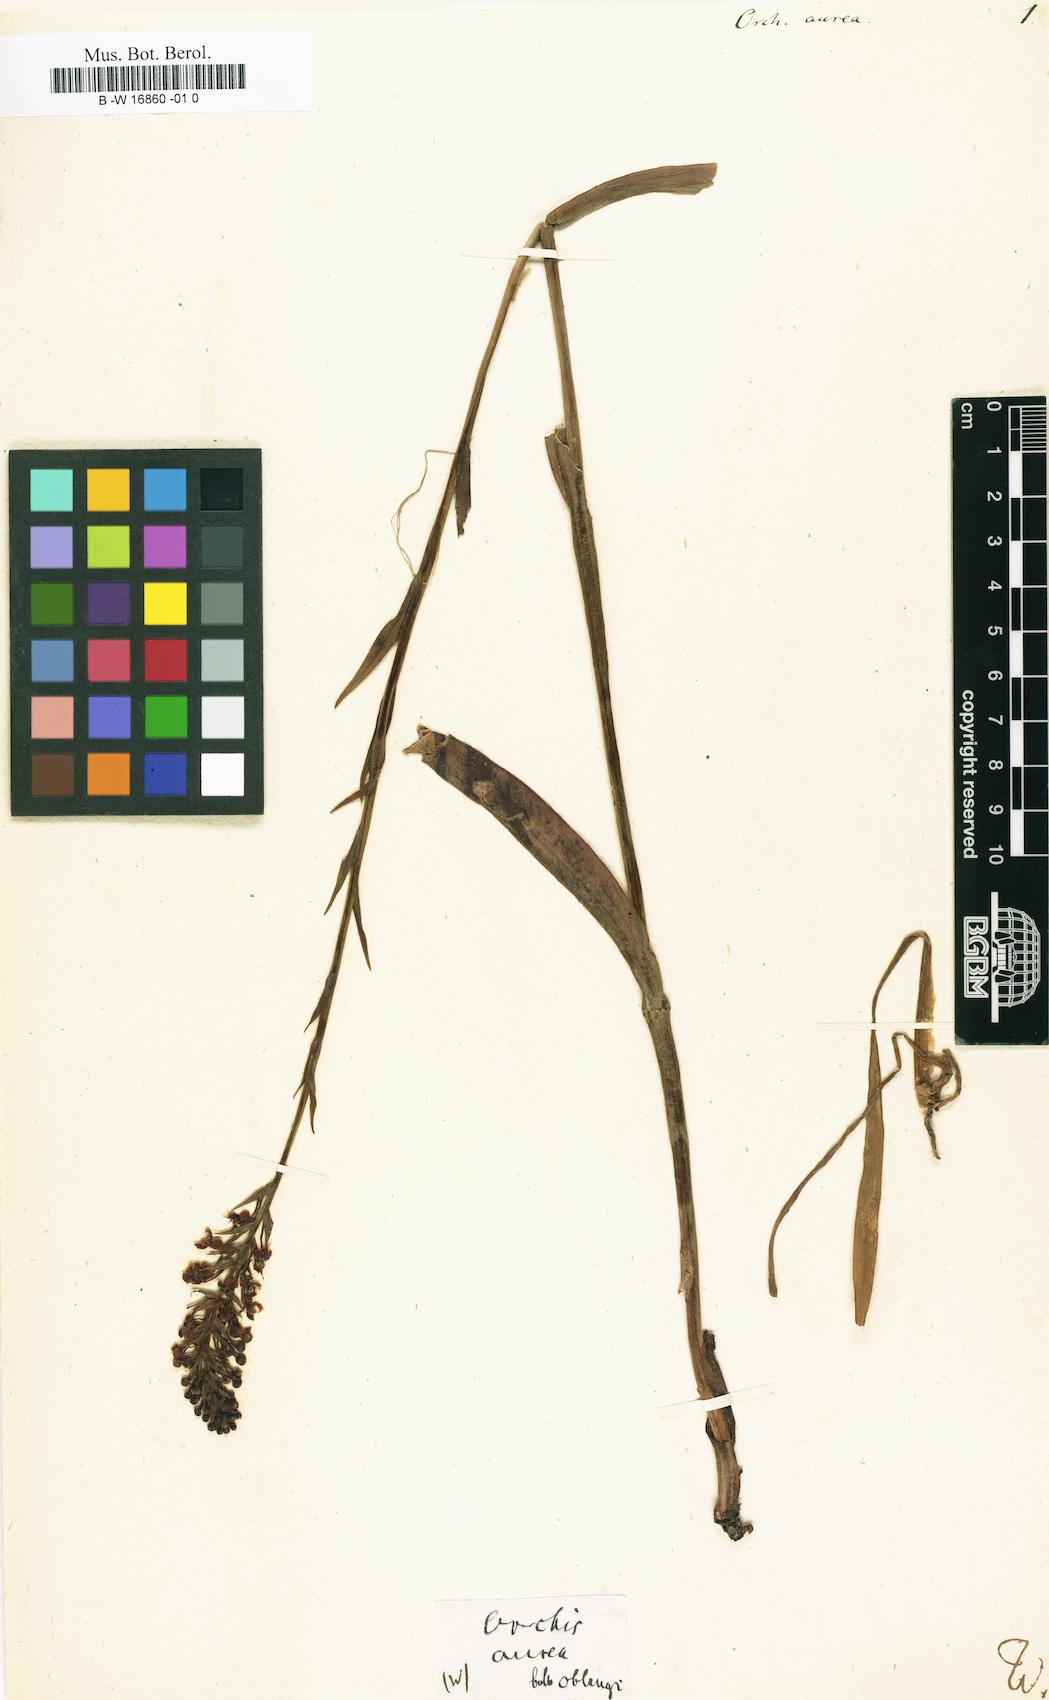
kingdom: Plantae
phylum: Tracheophyta
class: Liliopsida
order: Asparagales
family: Orchidaceae
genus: Orchis
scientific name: Orchis
